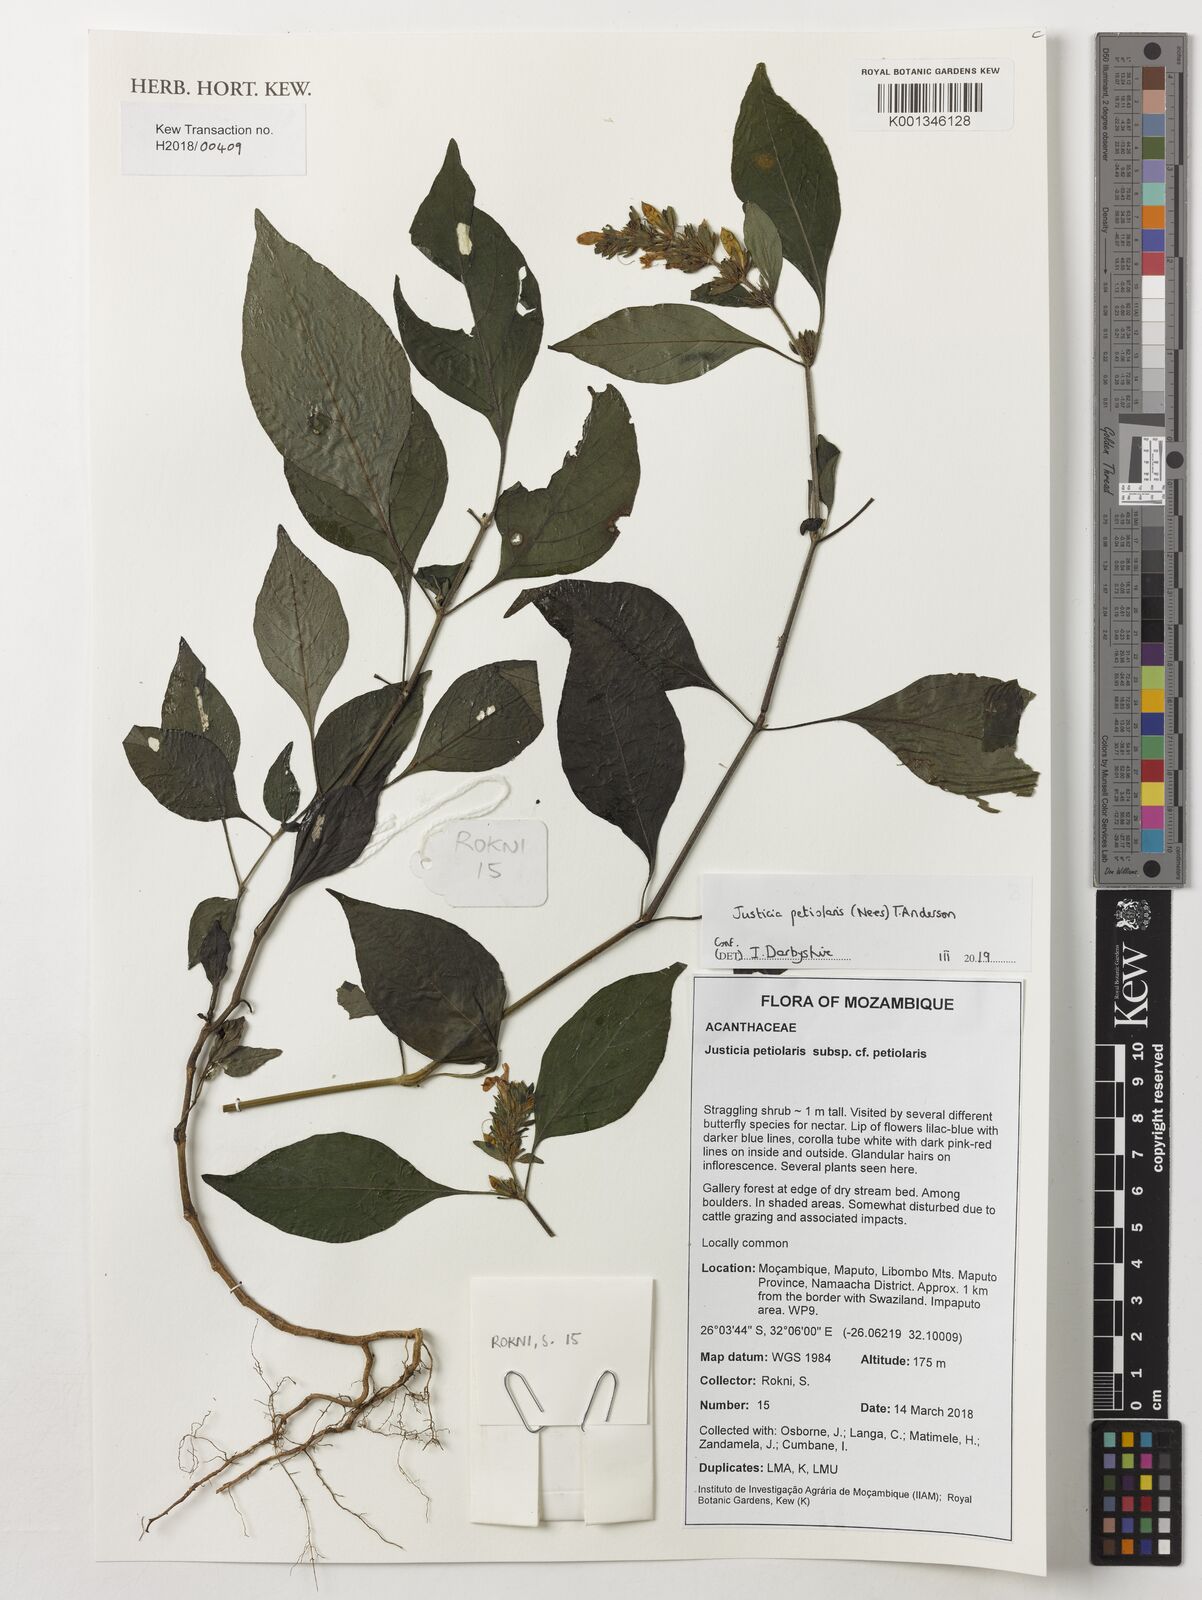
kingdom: Plantae
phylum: Tracheophyta
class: Magnoliopsida
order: Lamiales
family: Acanthaceae
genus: Justicia
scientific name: Justicia petiolaris
